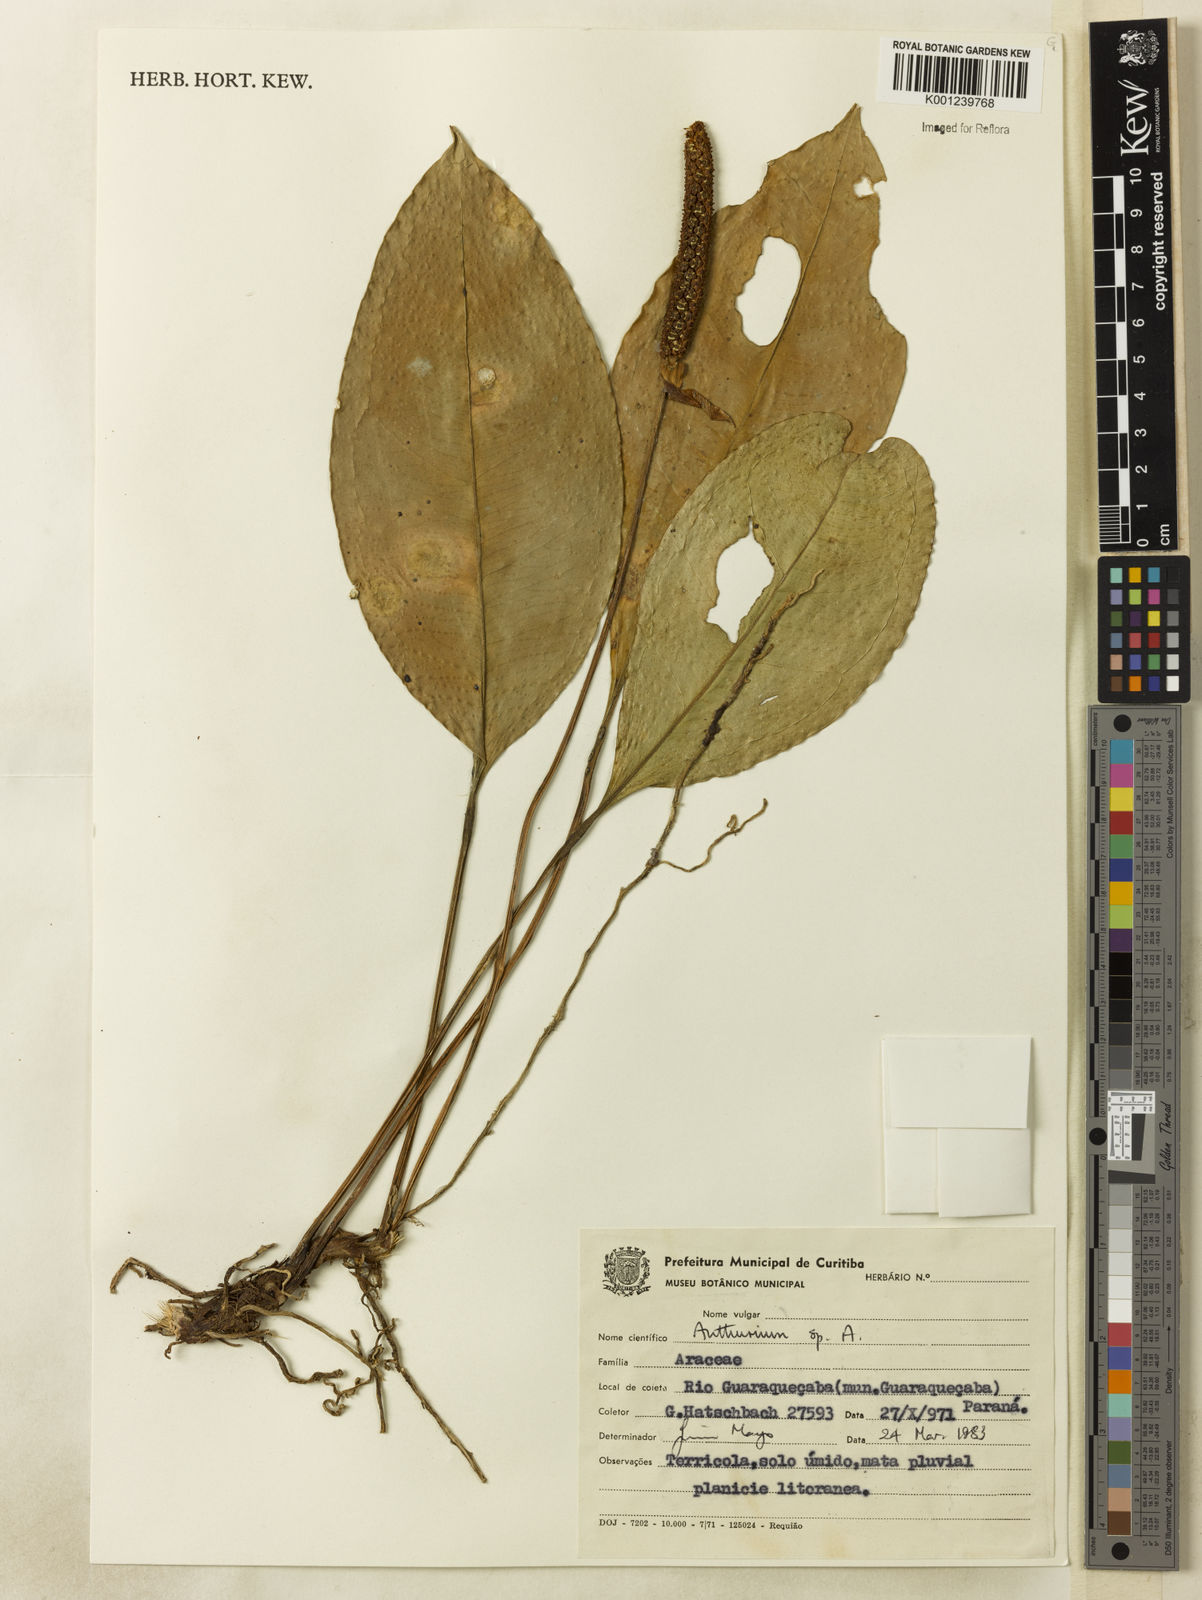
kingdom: Plantae
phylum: Tracheophyta
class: Liliopsida
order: Alismatales
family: Araceae
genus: Anthurium
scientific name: Anthurium
